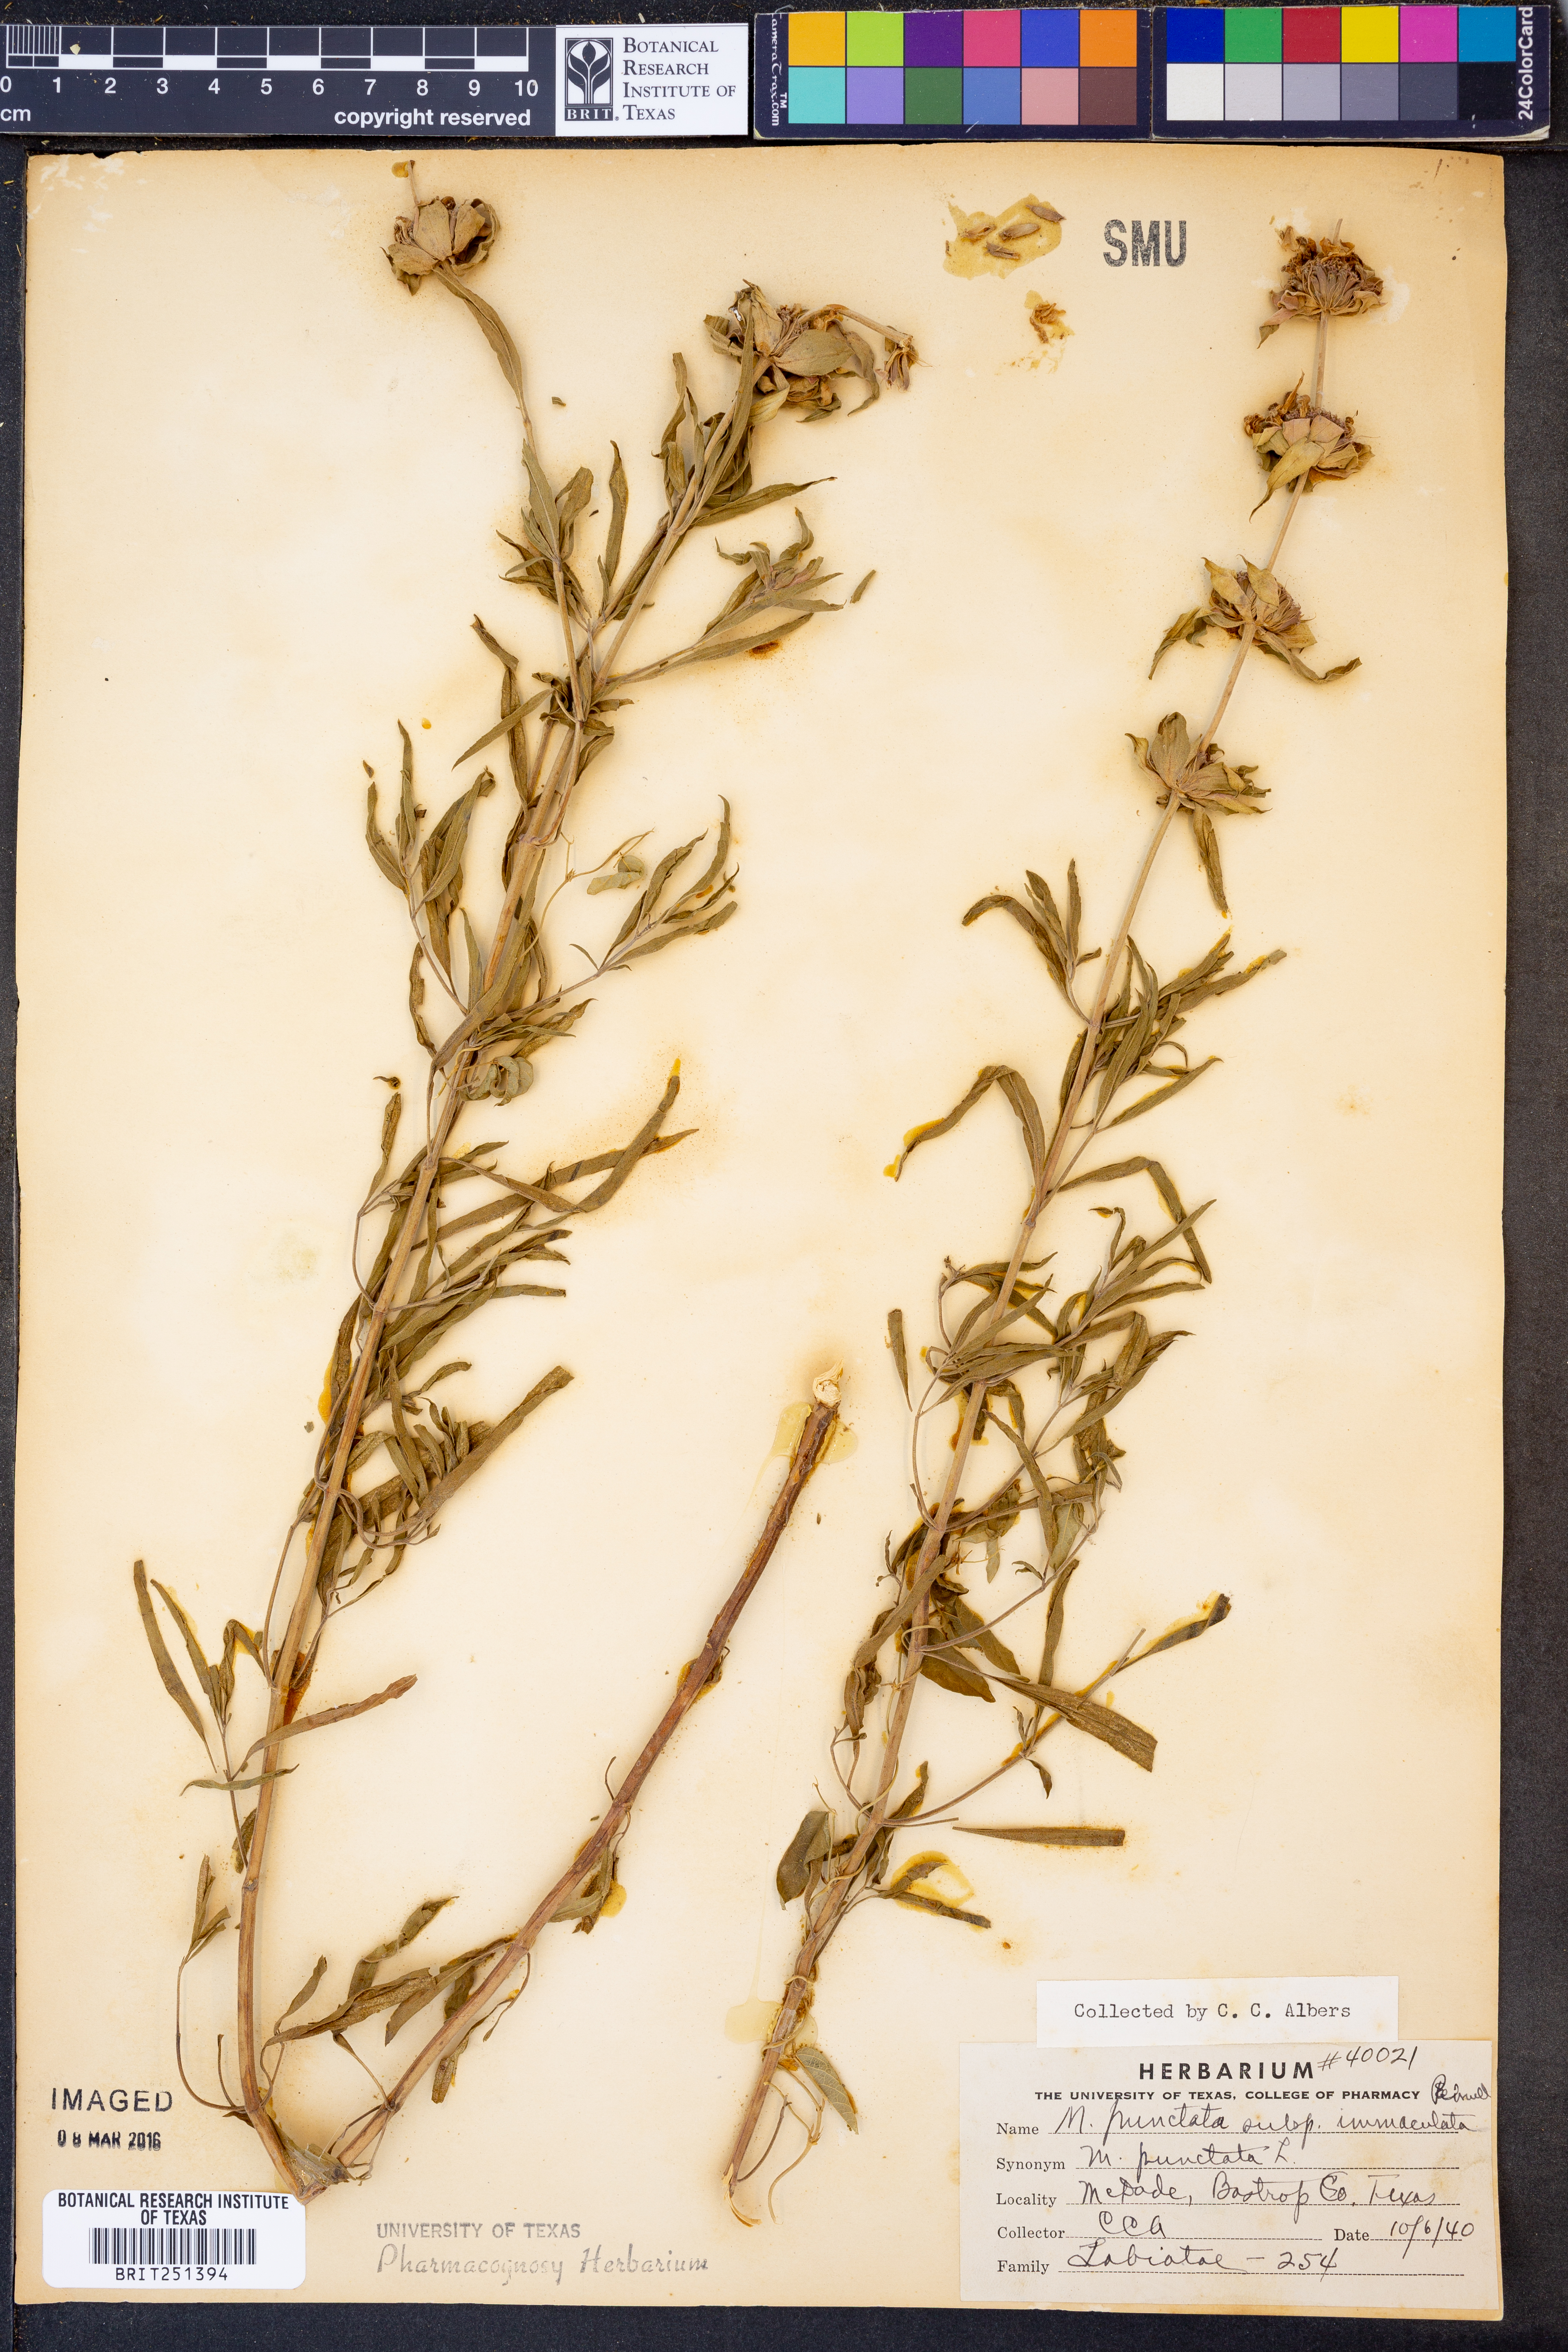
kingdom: Plantae
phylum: Tracheophyta
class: Magnoliopsida
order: Lamiales
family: Lamiaceae
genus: Monarda
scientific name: Monarda punctata
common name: Dotted monarda
